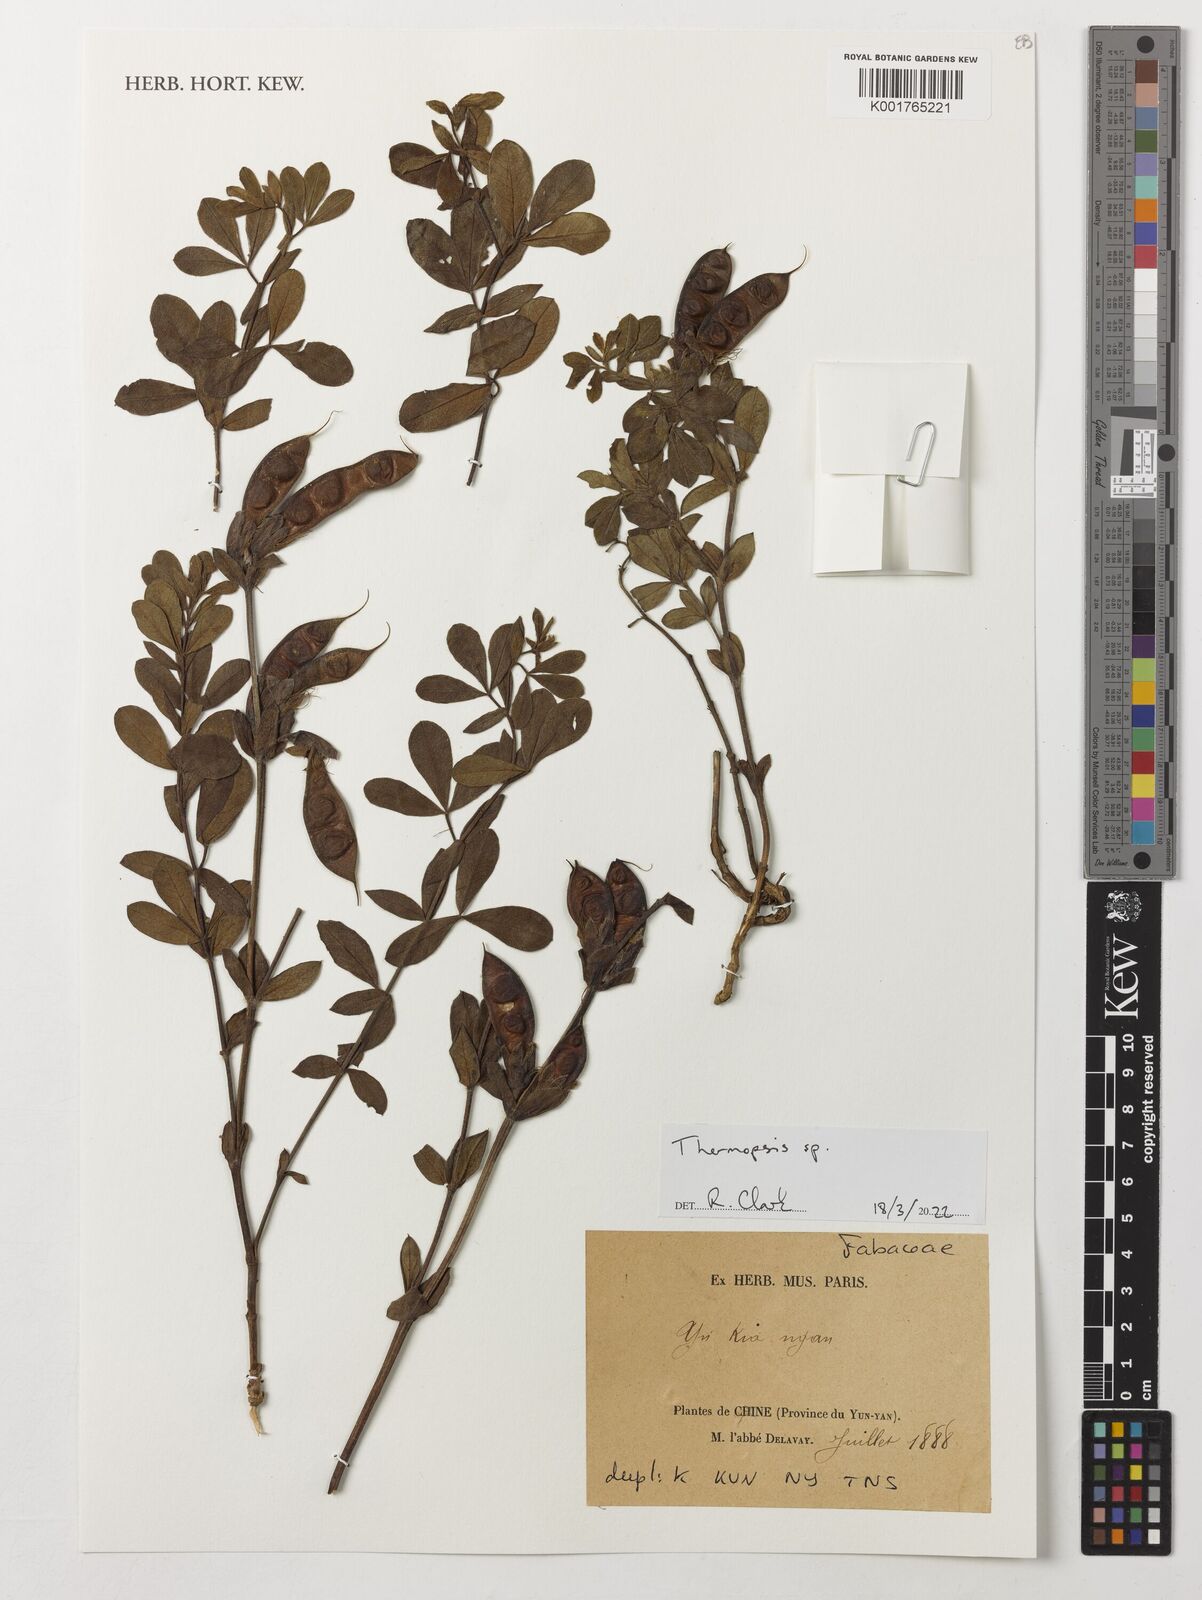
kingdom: Plantae
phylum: Tracheophyta
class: Magnoliopsida
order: Fabales
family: Fabaceae
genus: Thermopsis
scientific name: Thermopsis
